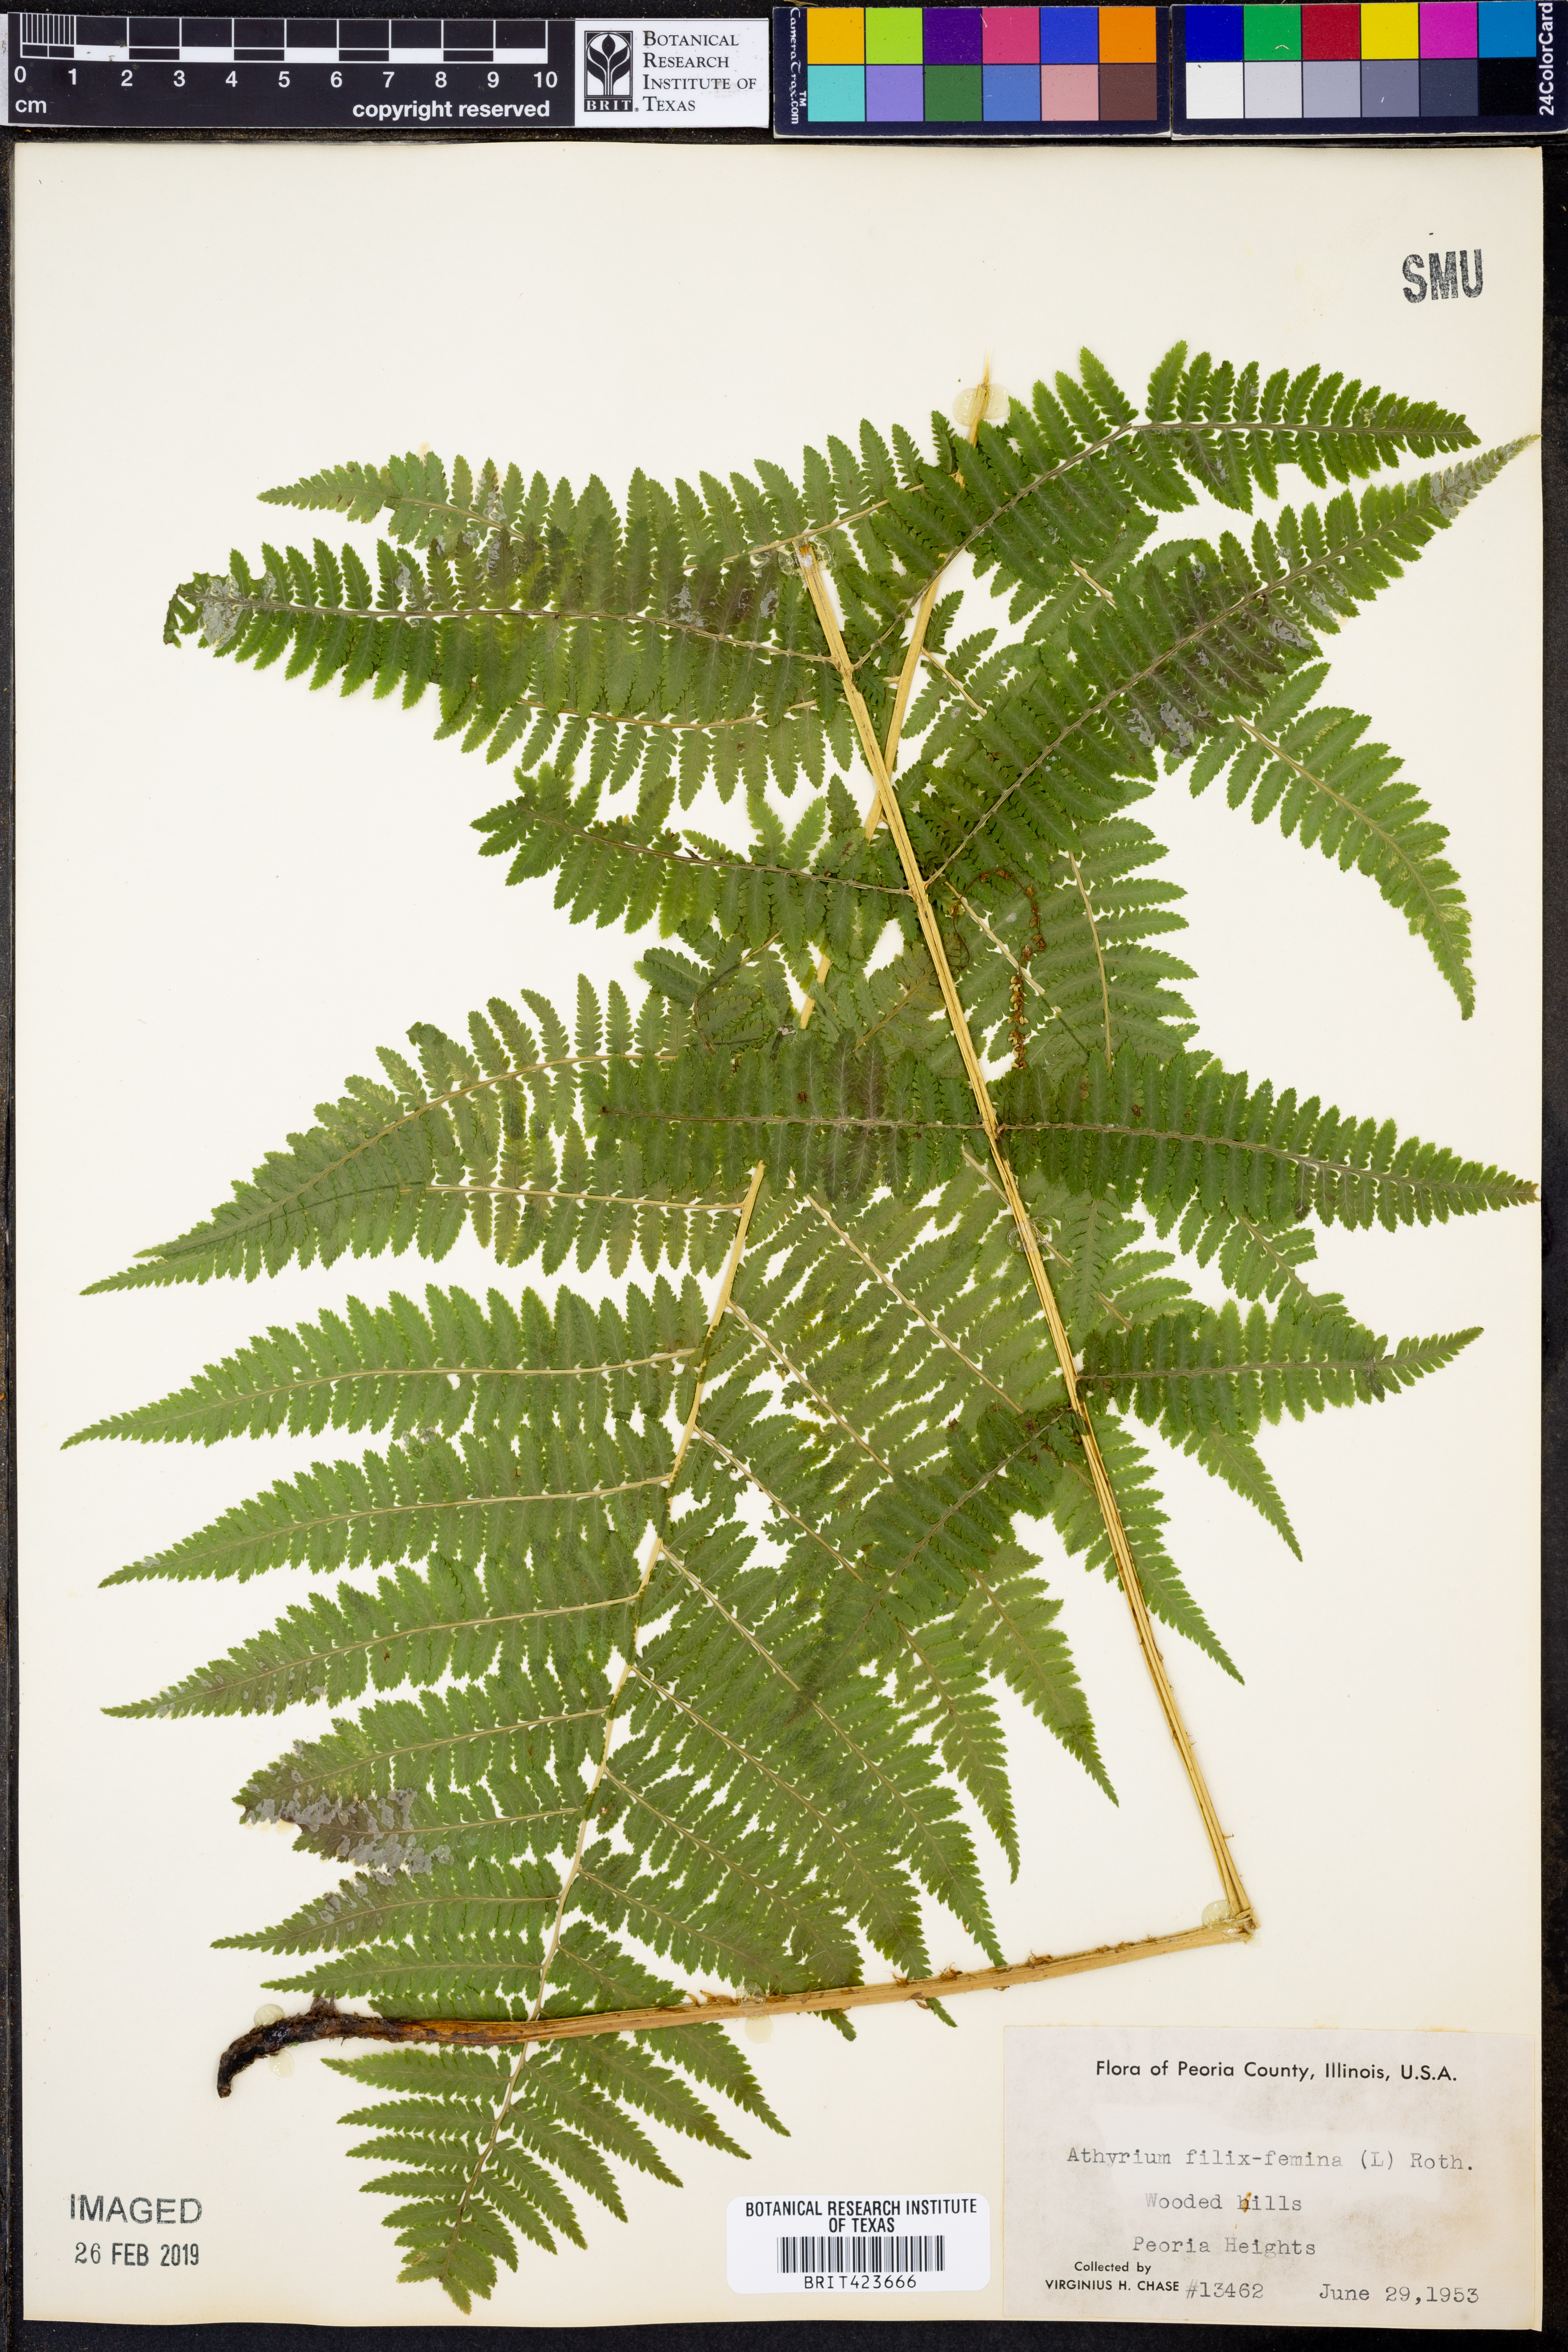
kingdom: Plantae
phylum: Tracheophyta
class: Polypodiopsida
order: Polypodiales
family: Athyriaceae
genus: Athyrium
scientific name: Athyrium filix-femina
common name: Lady fern
